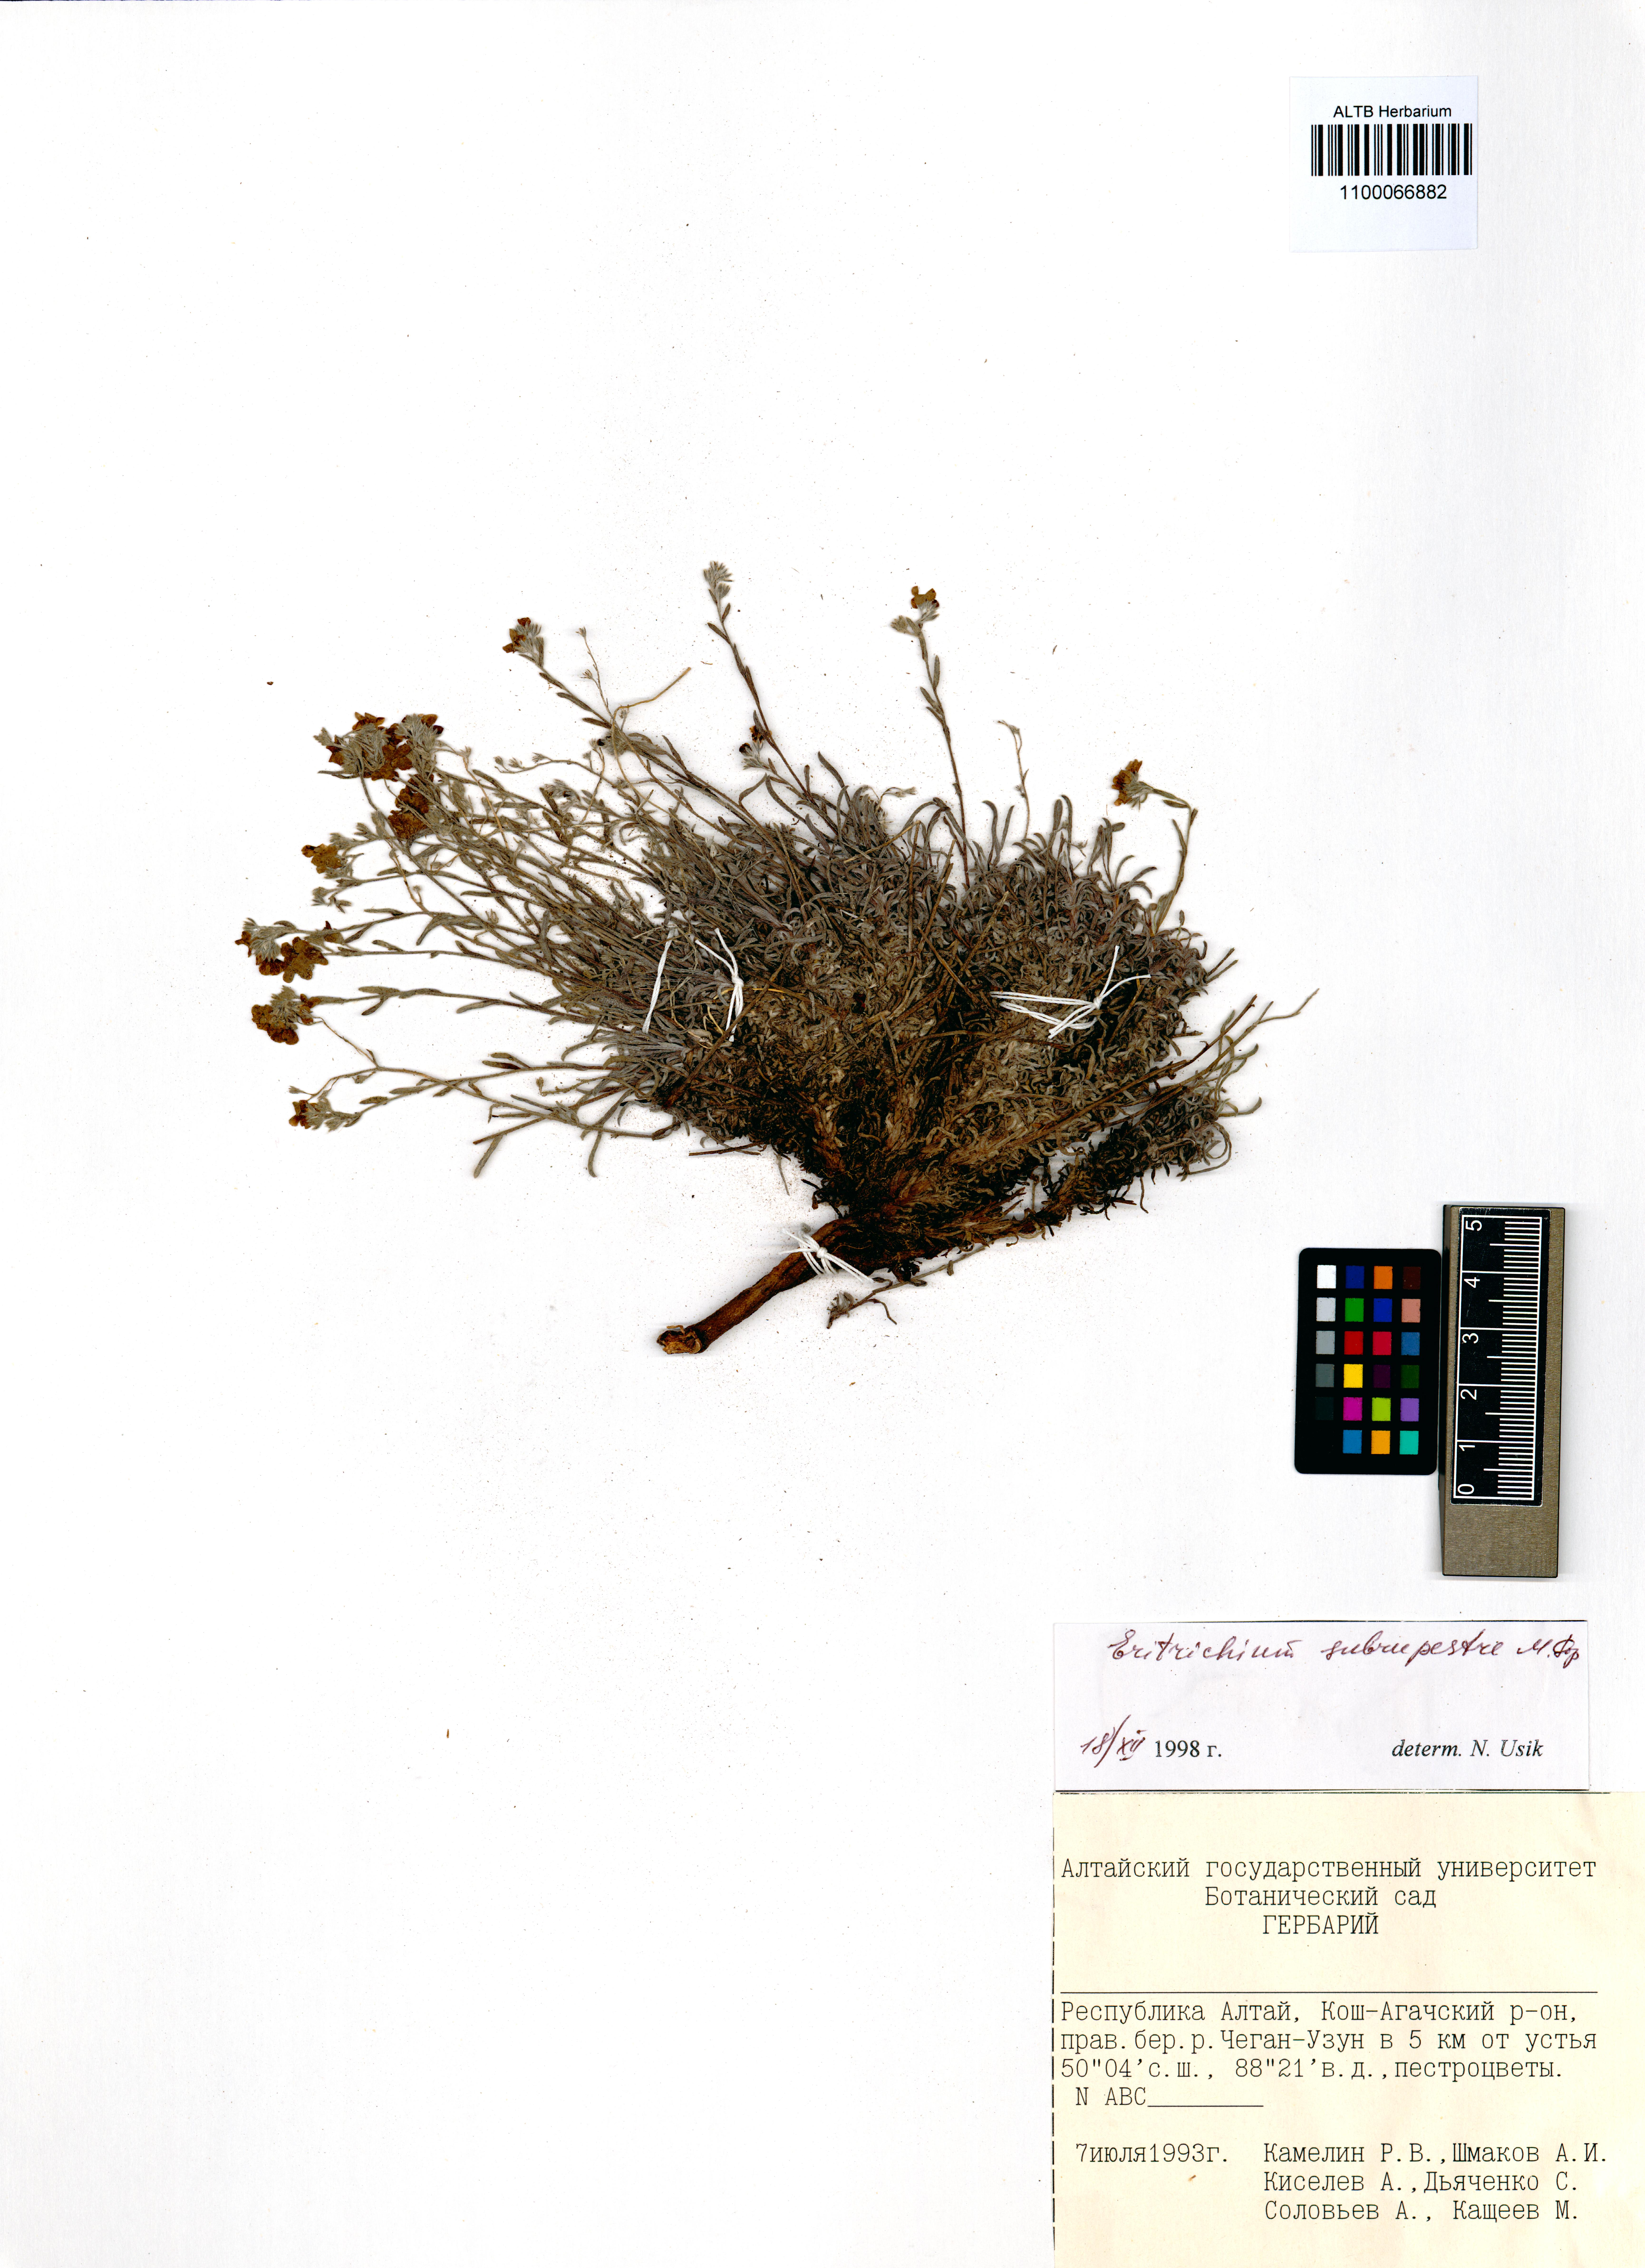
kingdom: Plantae
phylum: Tracheophyta
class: Magnoliopsida
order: Boraginales
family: Boraginaceae
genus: Eritrichium
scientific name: Eritrichium pauciflorum
